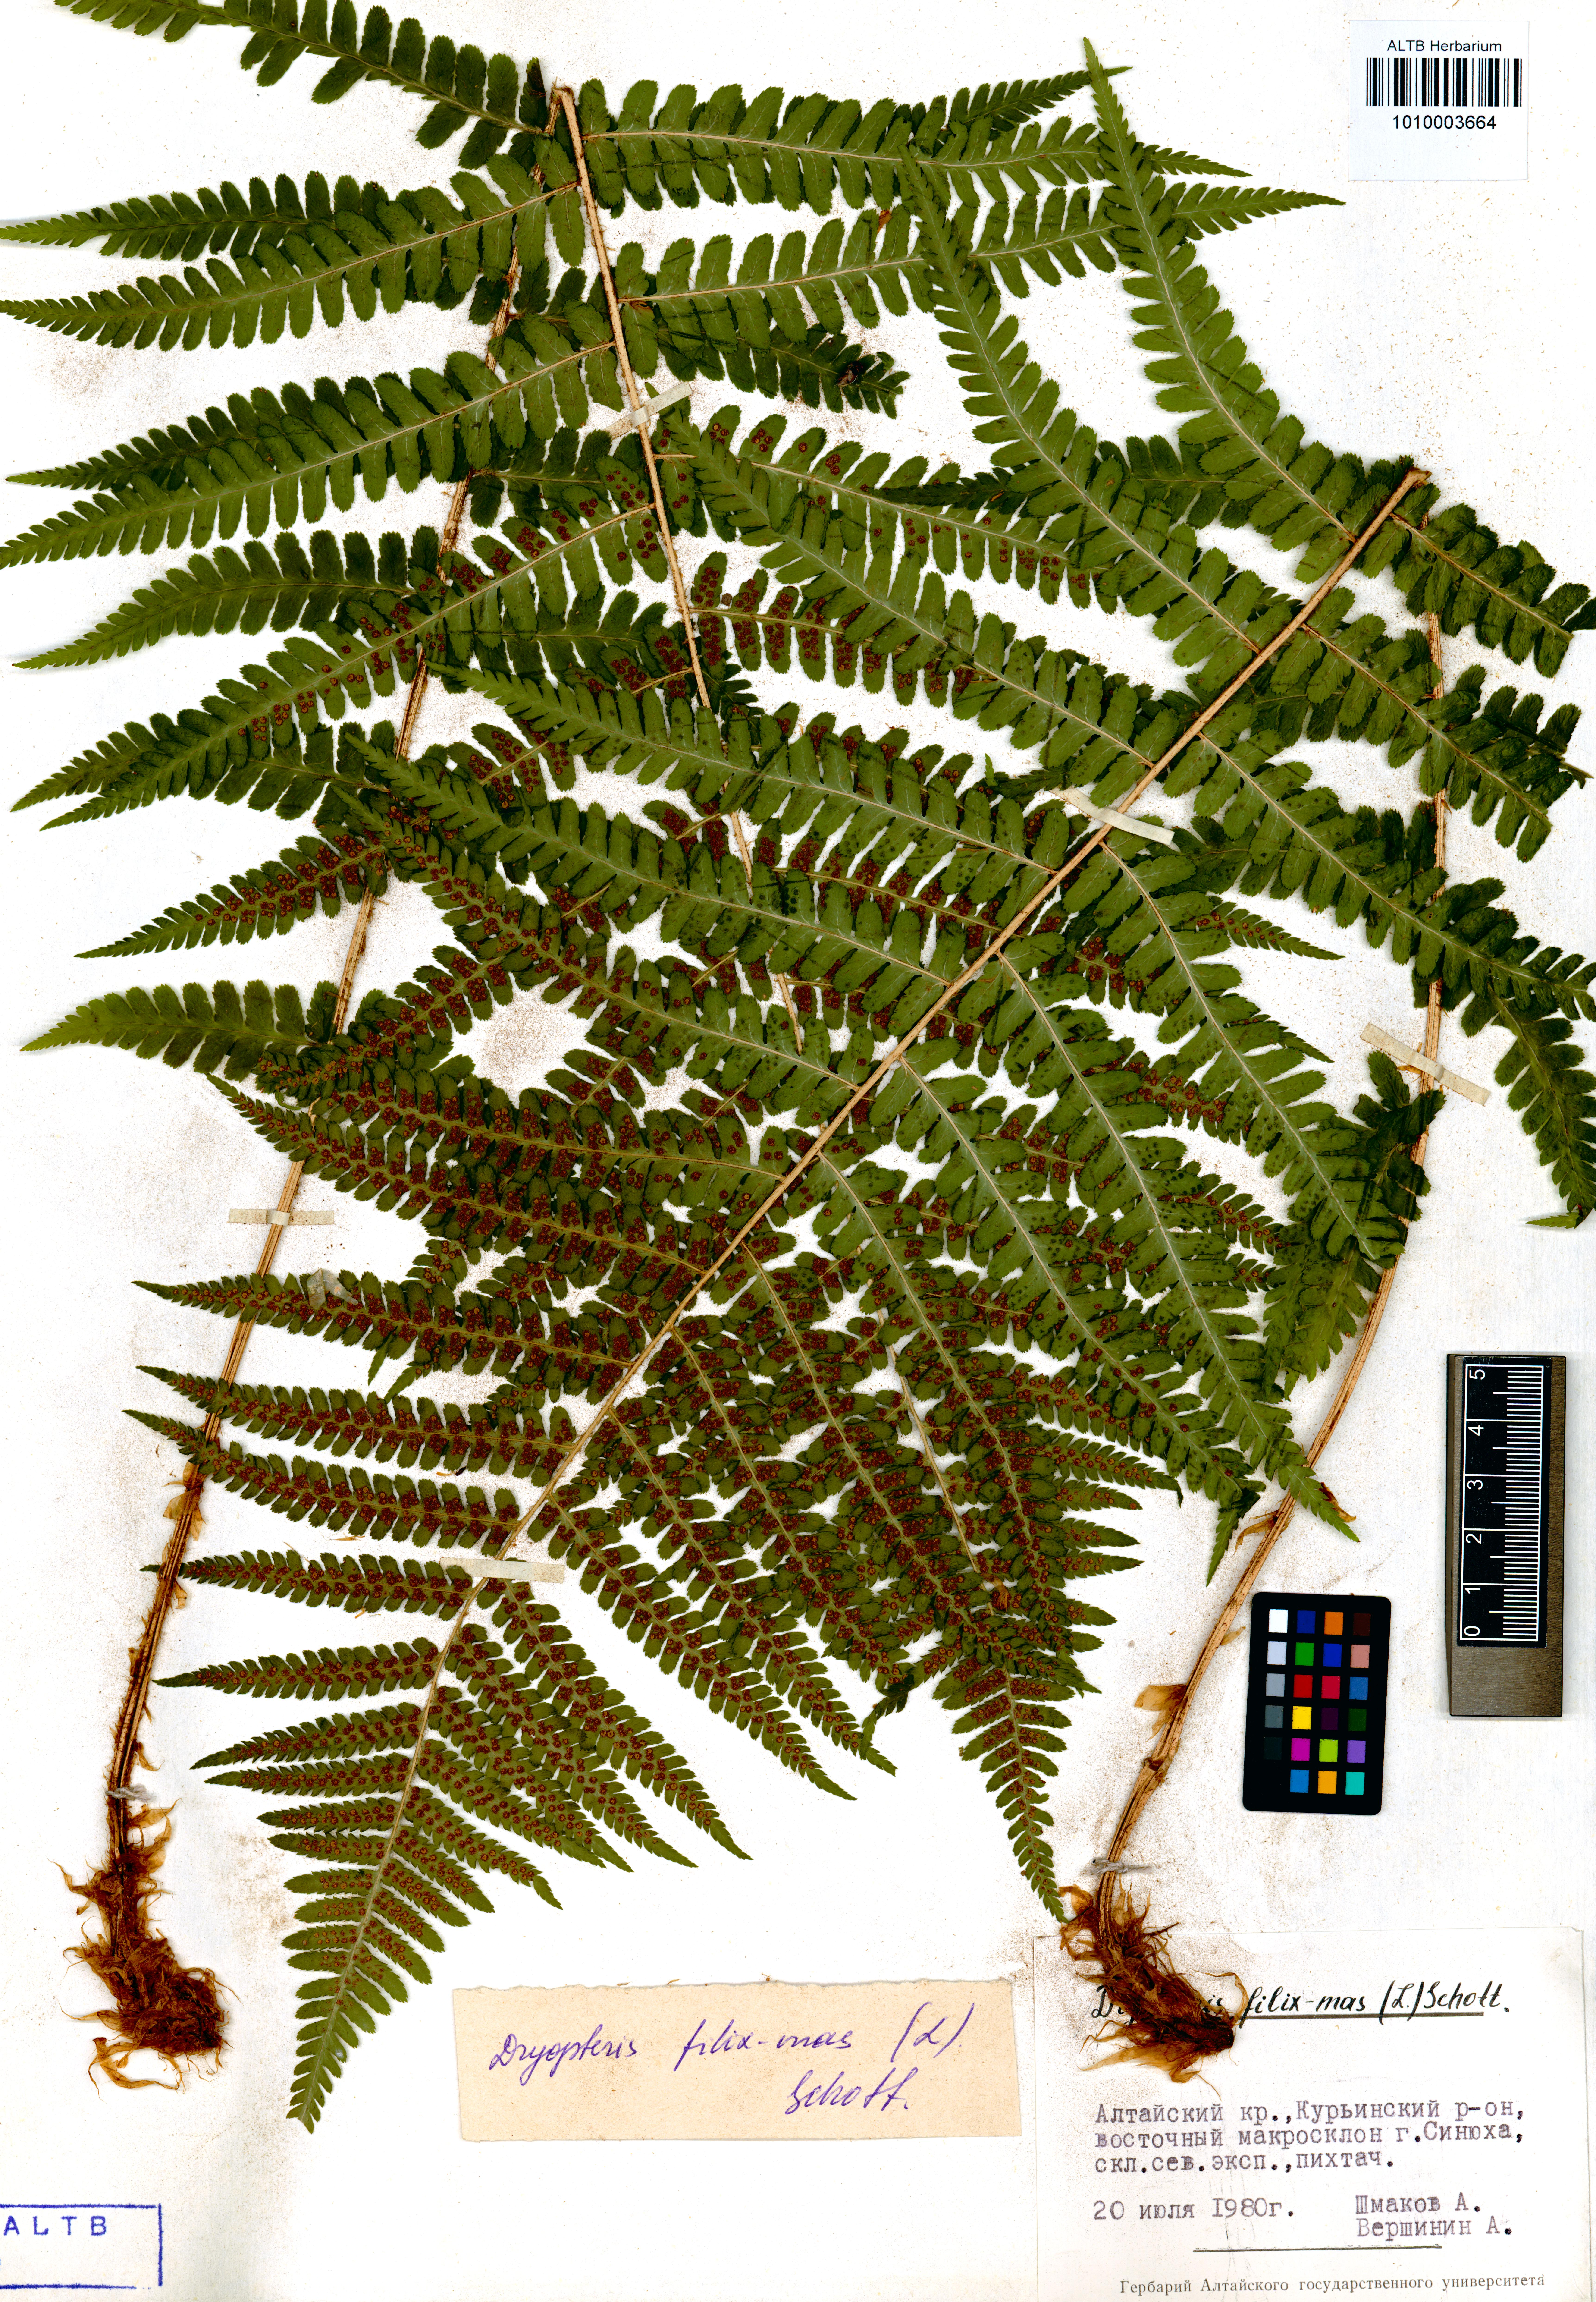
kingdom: Plantae
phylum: Tracheophyta
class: Polypodiopsida
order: Polypodiales
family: Dryopteridaceae
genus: Dryopteris
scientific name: Dryopteris filix-mas
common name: Male fern
